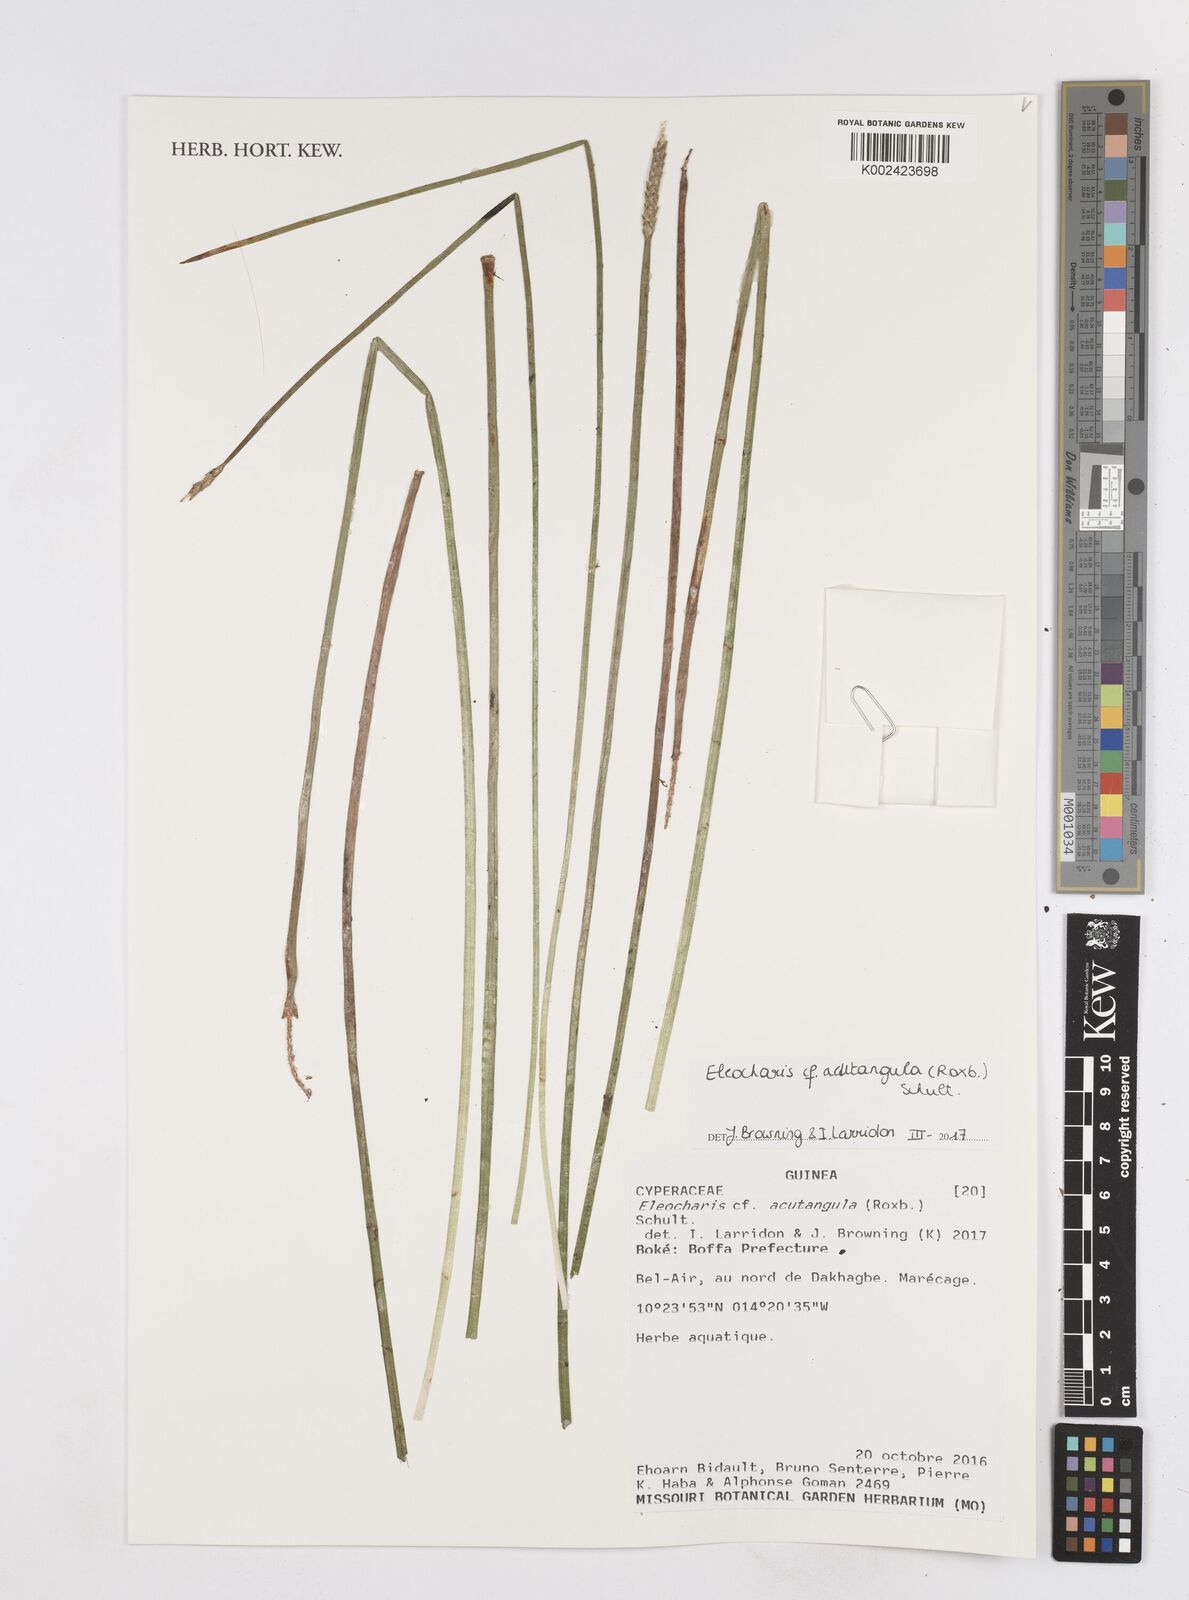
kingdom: Plantae
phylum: Tracheophyta
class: Liliopsida
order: Poales
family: Cyperaceae
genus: Eleocharis
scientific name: Eleocharis acutangula
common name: Acute spikerush
